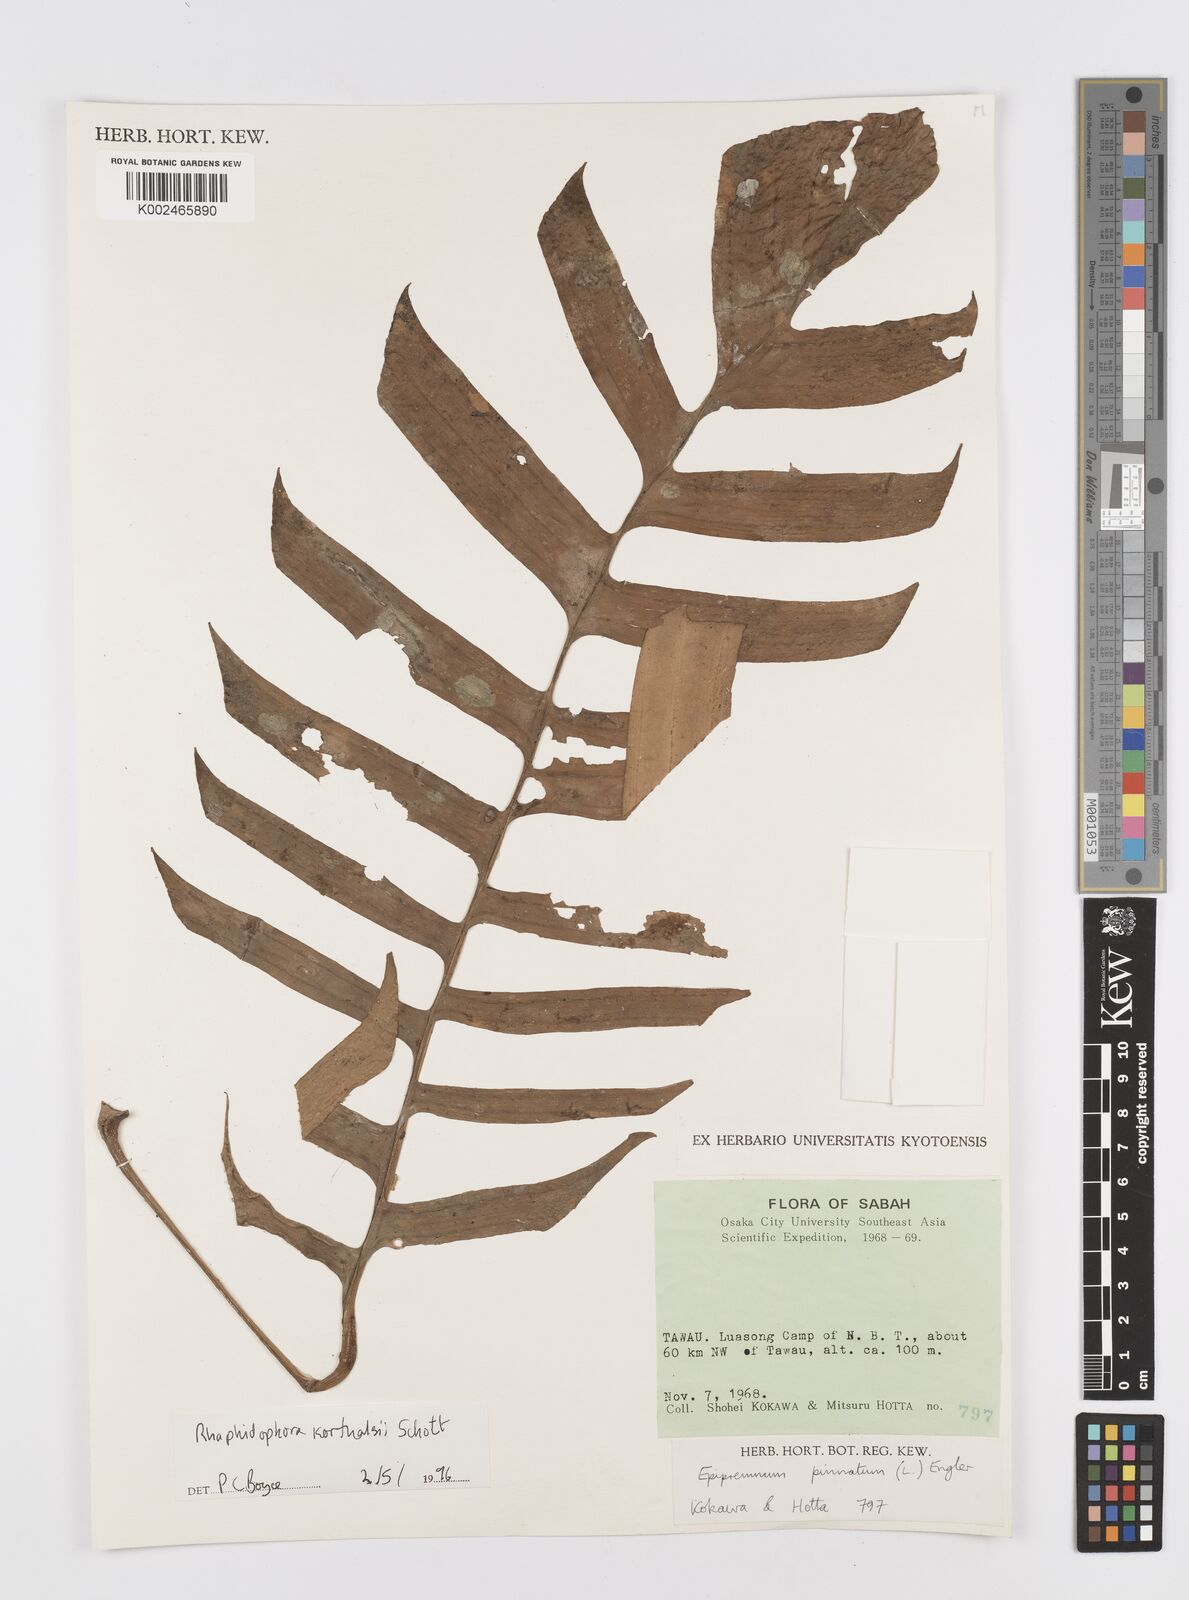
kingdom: Plantae
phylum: Tracheophyta
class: Liliopsida
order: Alismatales
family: Araceae
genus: Rhaphidophora
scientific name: Rhaphidophora korthalsii
